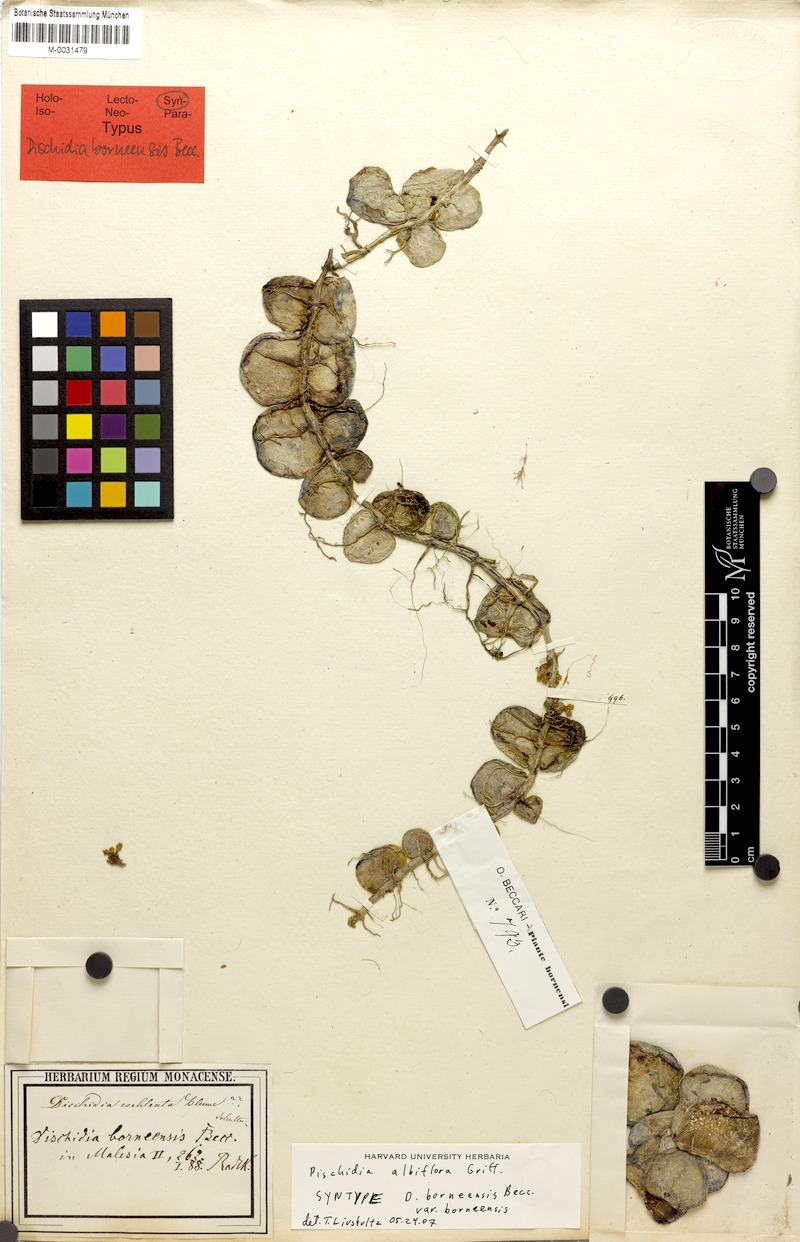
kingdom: Plantae
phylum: Tracheophyta
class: Magnoliopsida
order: Gentianales
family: Apocynaceae
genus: Dischidia
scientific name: Dischidia albiflora
